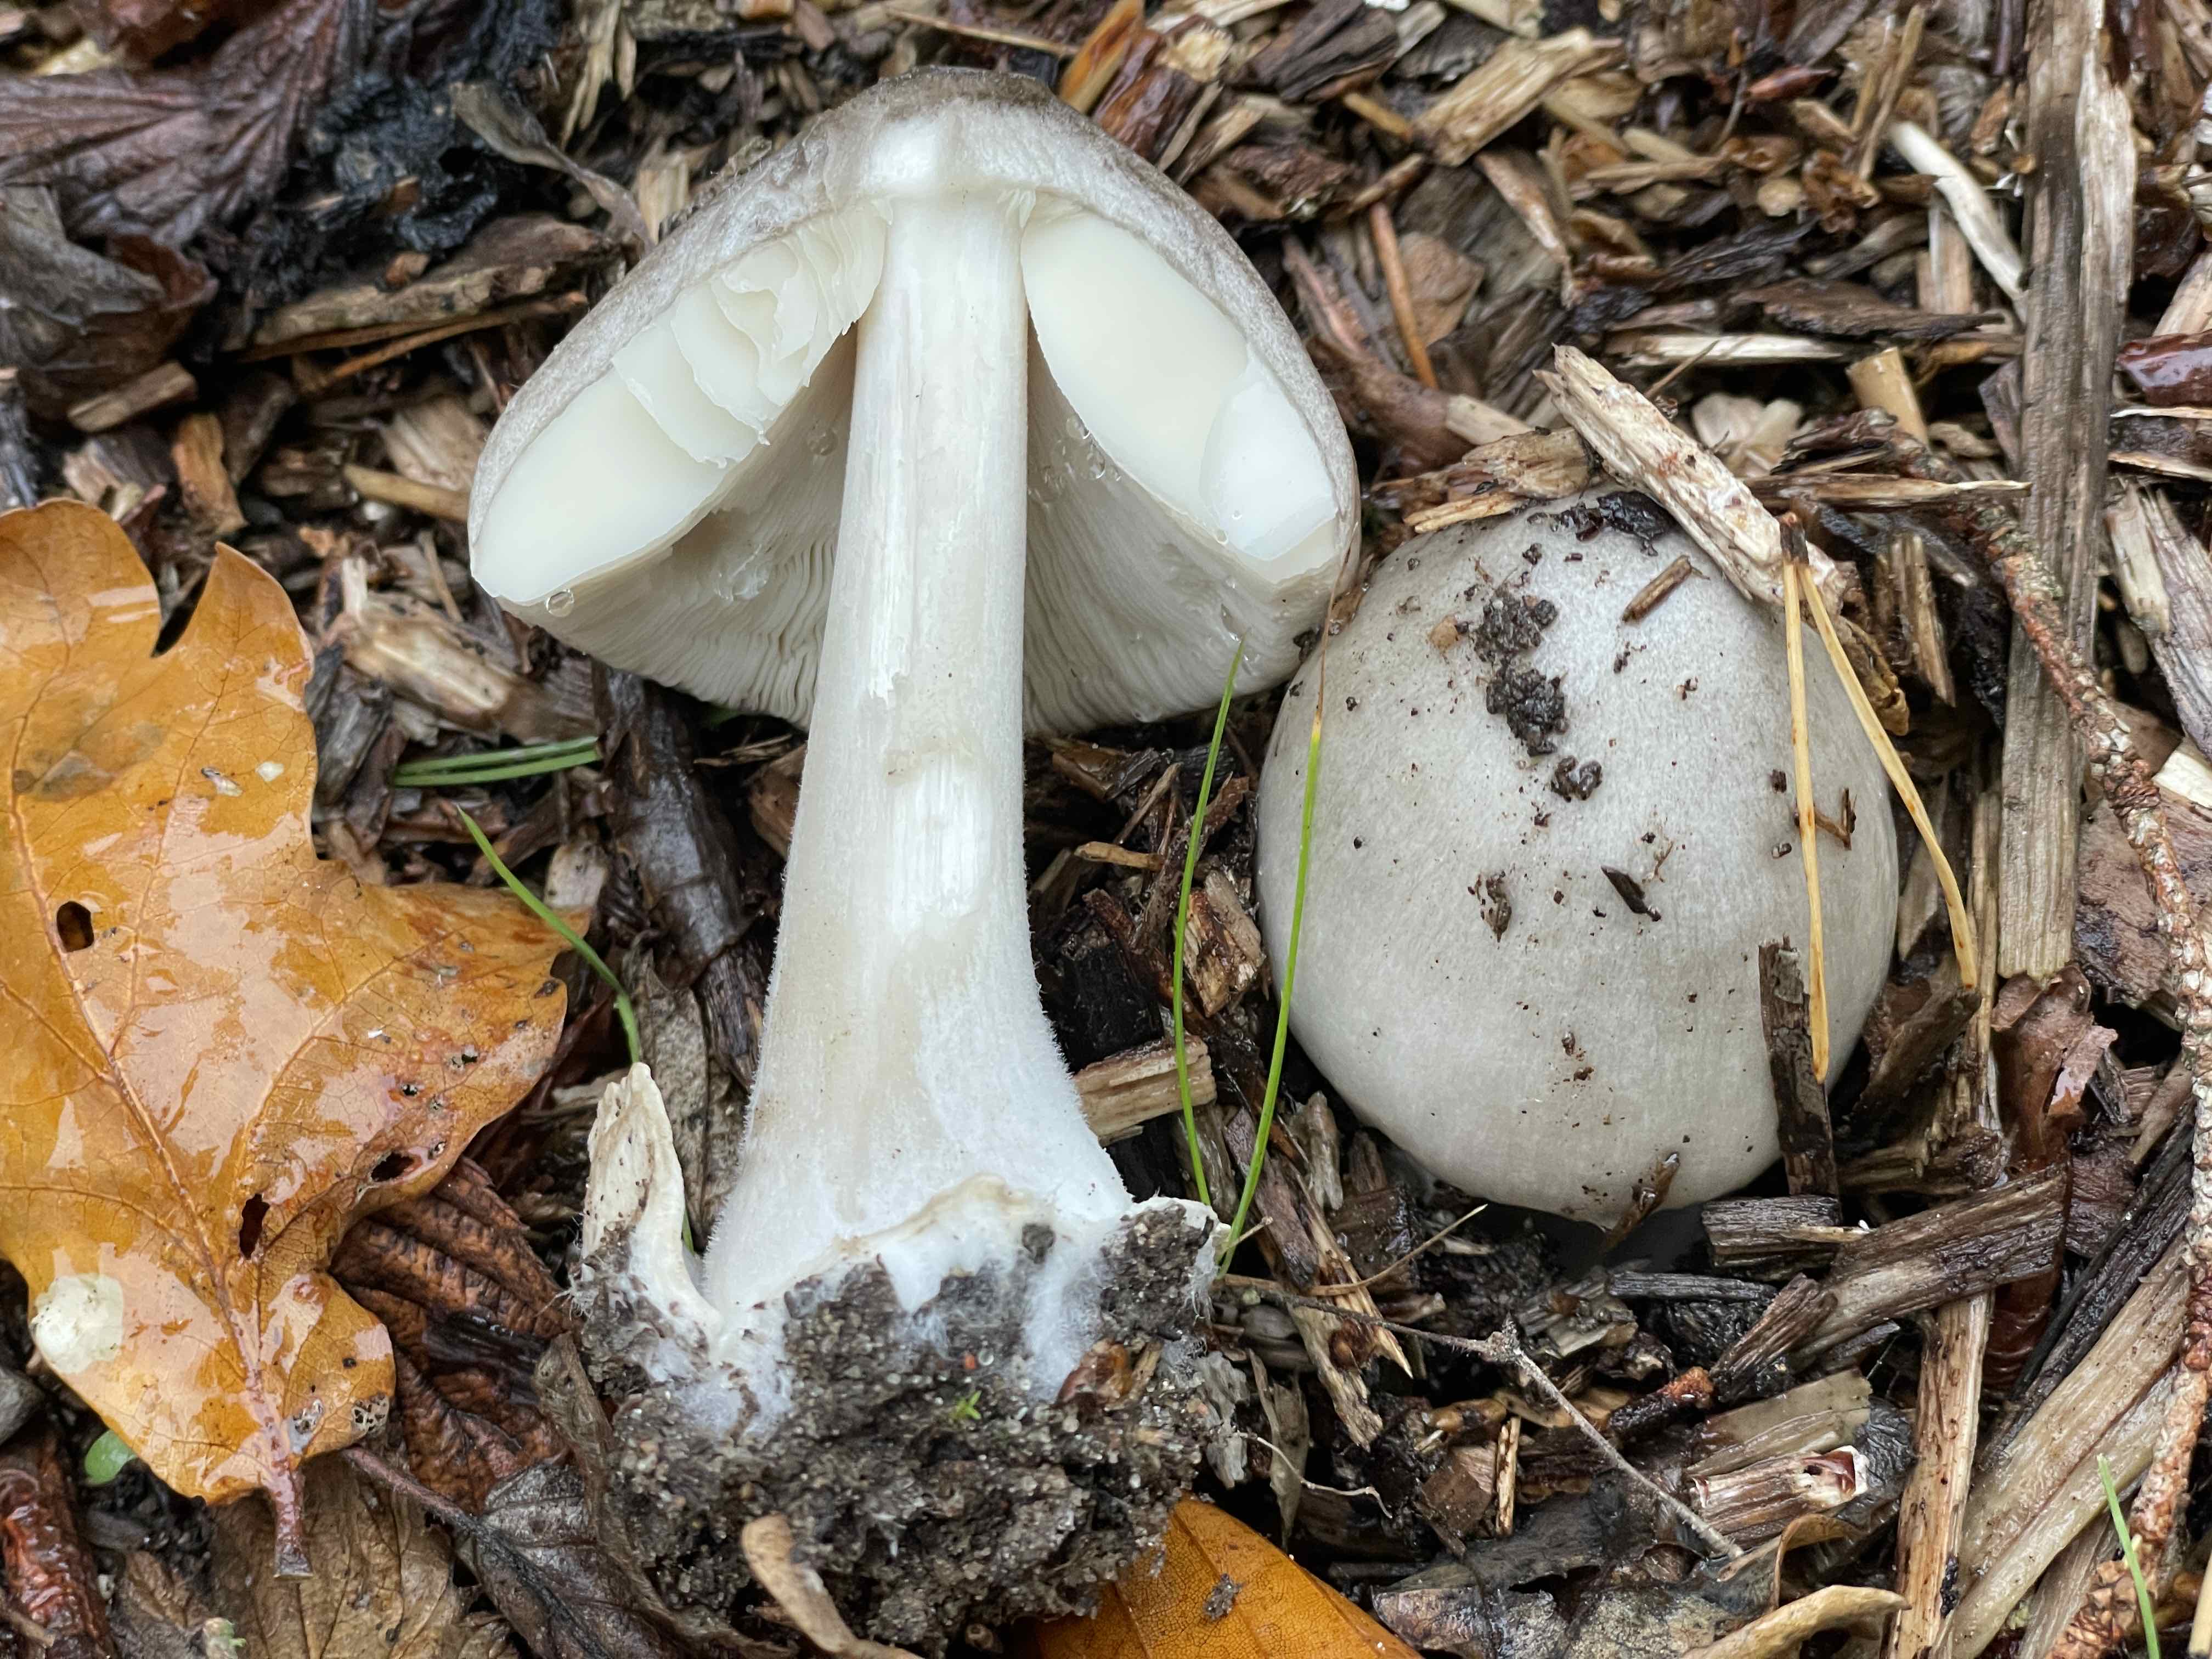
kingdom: Fungi
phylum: Basidiomycota
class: Agaricomycetes
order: Agaricales
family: Pluteaceae
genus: Volvopluteus
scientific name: Volvopluteus gloiocephalus
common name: høj posesvamp
